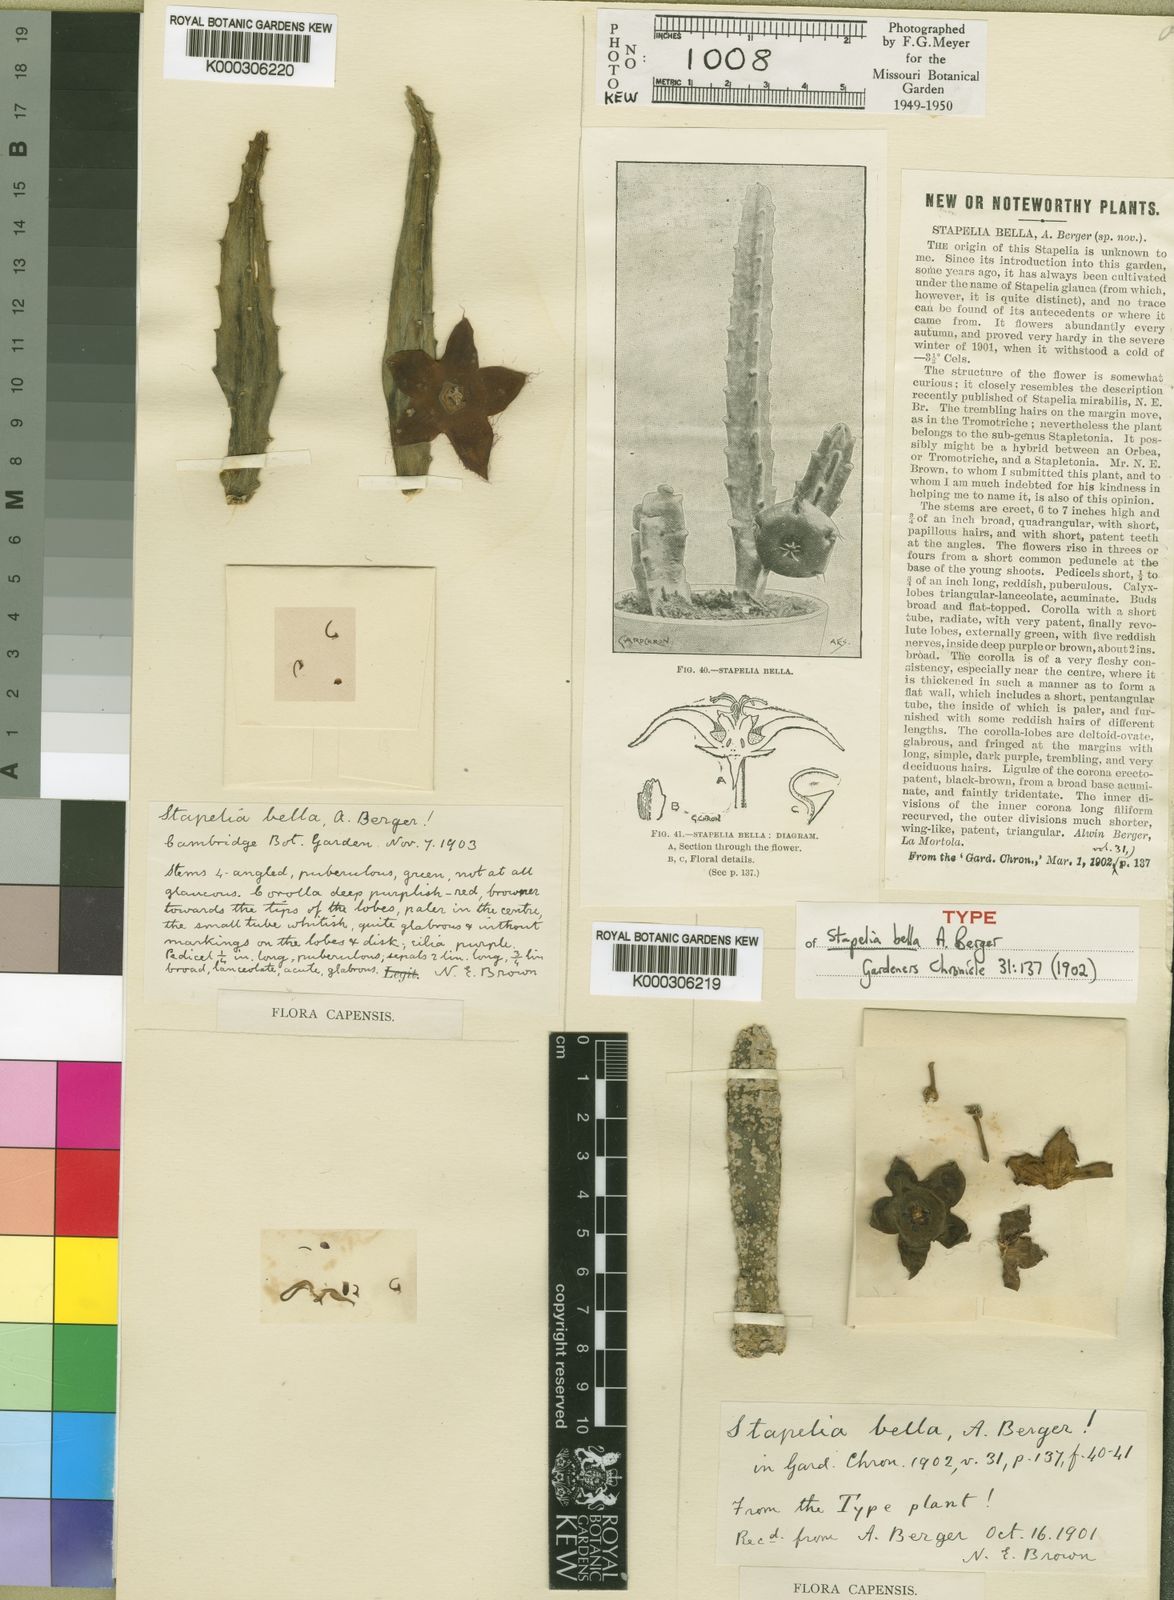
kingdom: Plantae
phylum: Tracheophyta
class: Magnoliopsida
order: Gentianales
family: Apocynaceae
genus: Stapelia
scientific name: Stapelia bella
